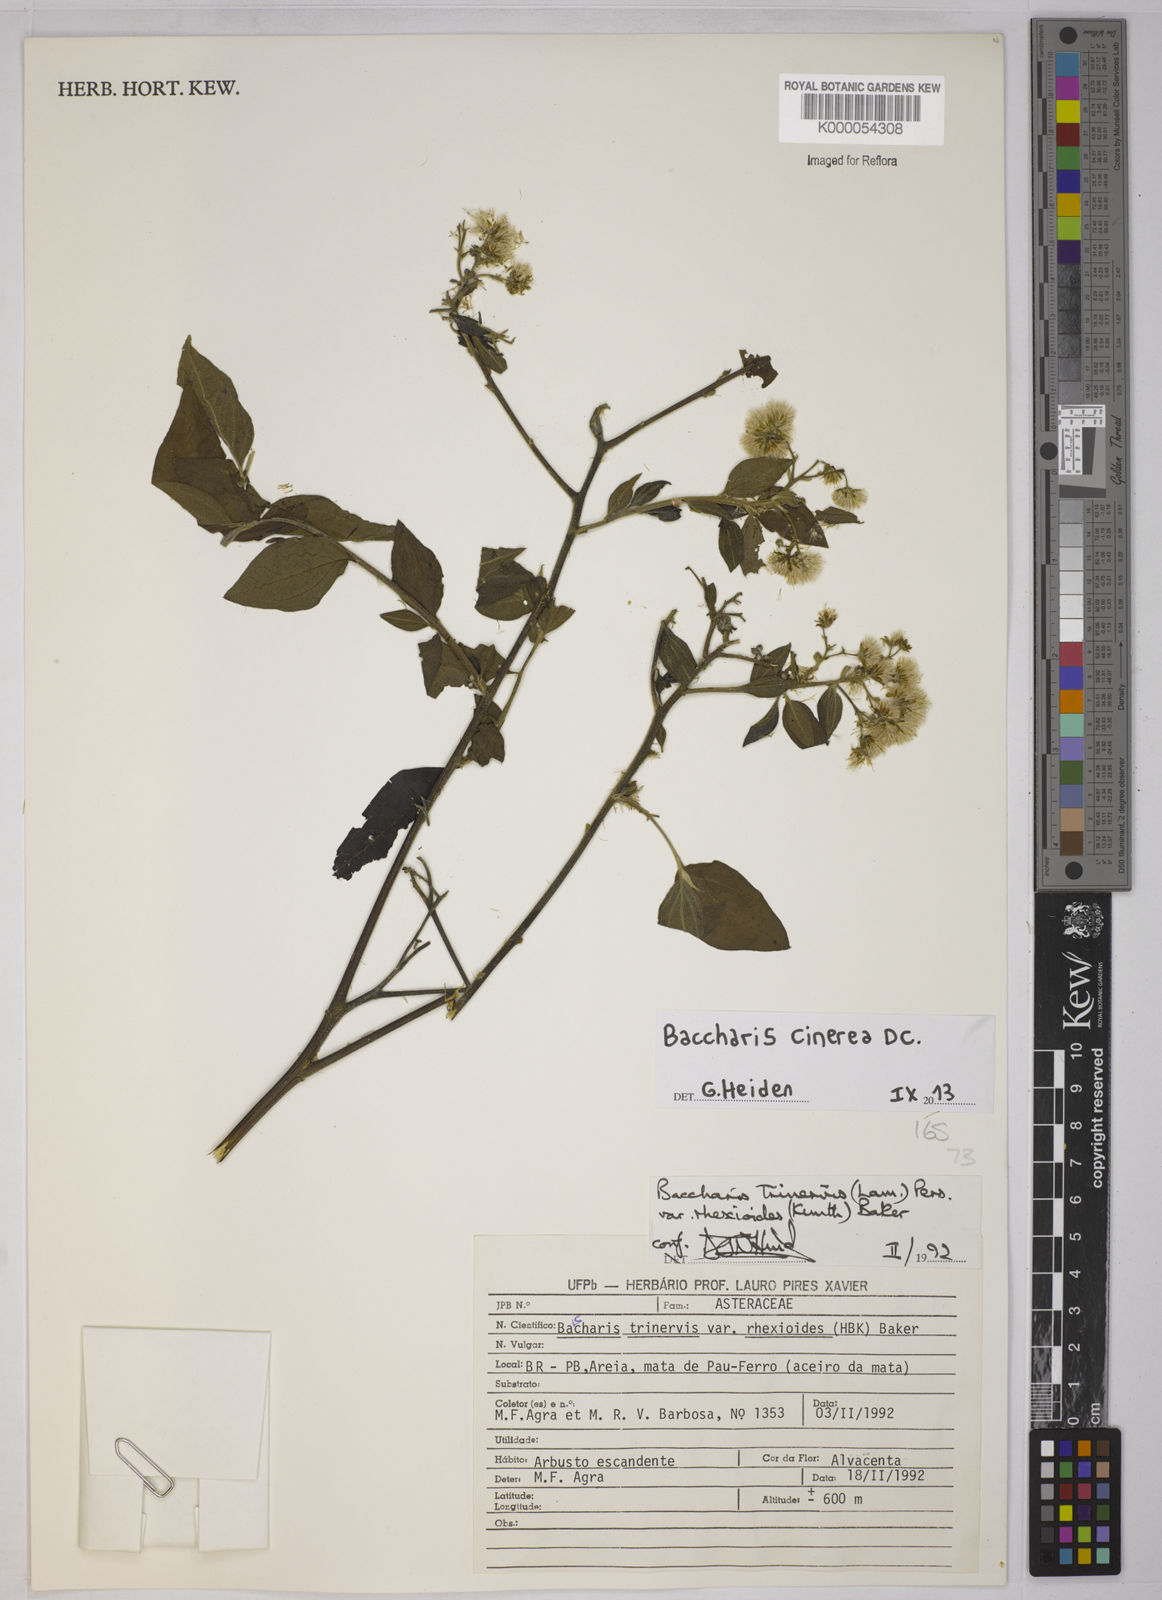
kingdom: Plantae
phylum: Tracheophyta
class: Magnoliopsida
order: Asterales
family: Asteraceae
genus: Baccharis
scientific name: Baccharis trinervis
